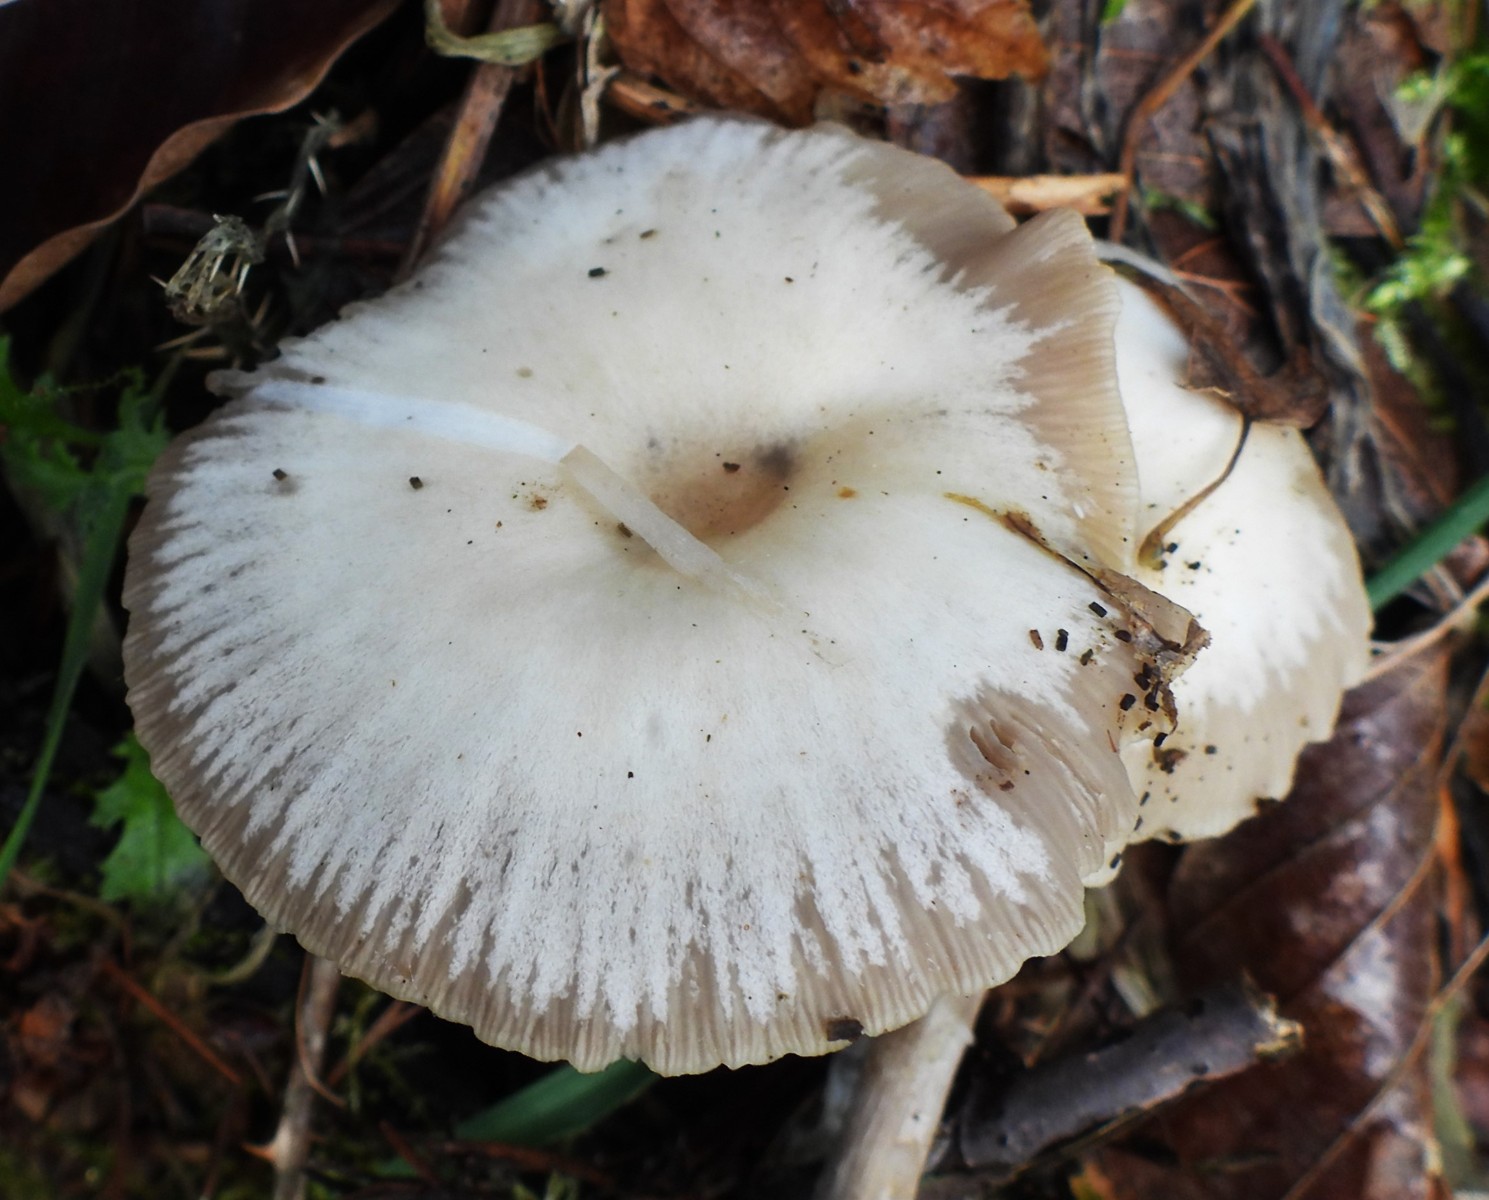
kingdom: Fungi
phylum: Basidiomycota
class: Agaricomycetes
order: Agaricales
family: Tricholomataceae
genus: Clitocybe
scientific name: Clitocybe metachroa
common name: grå tragthat
